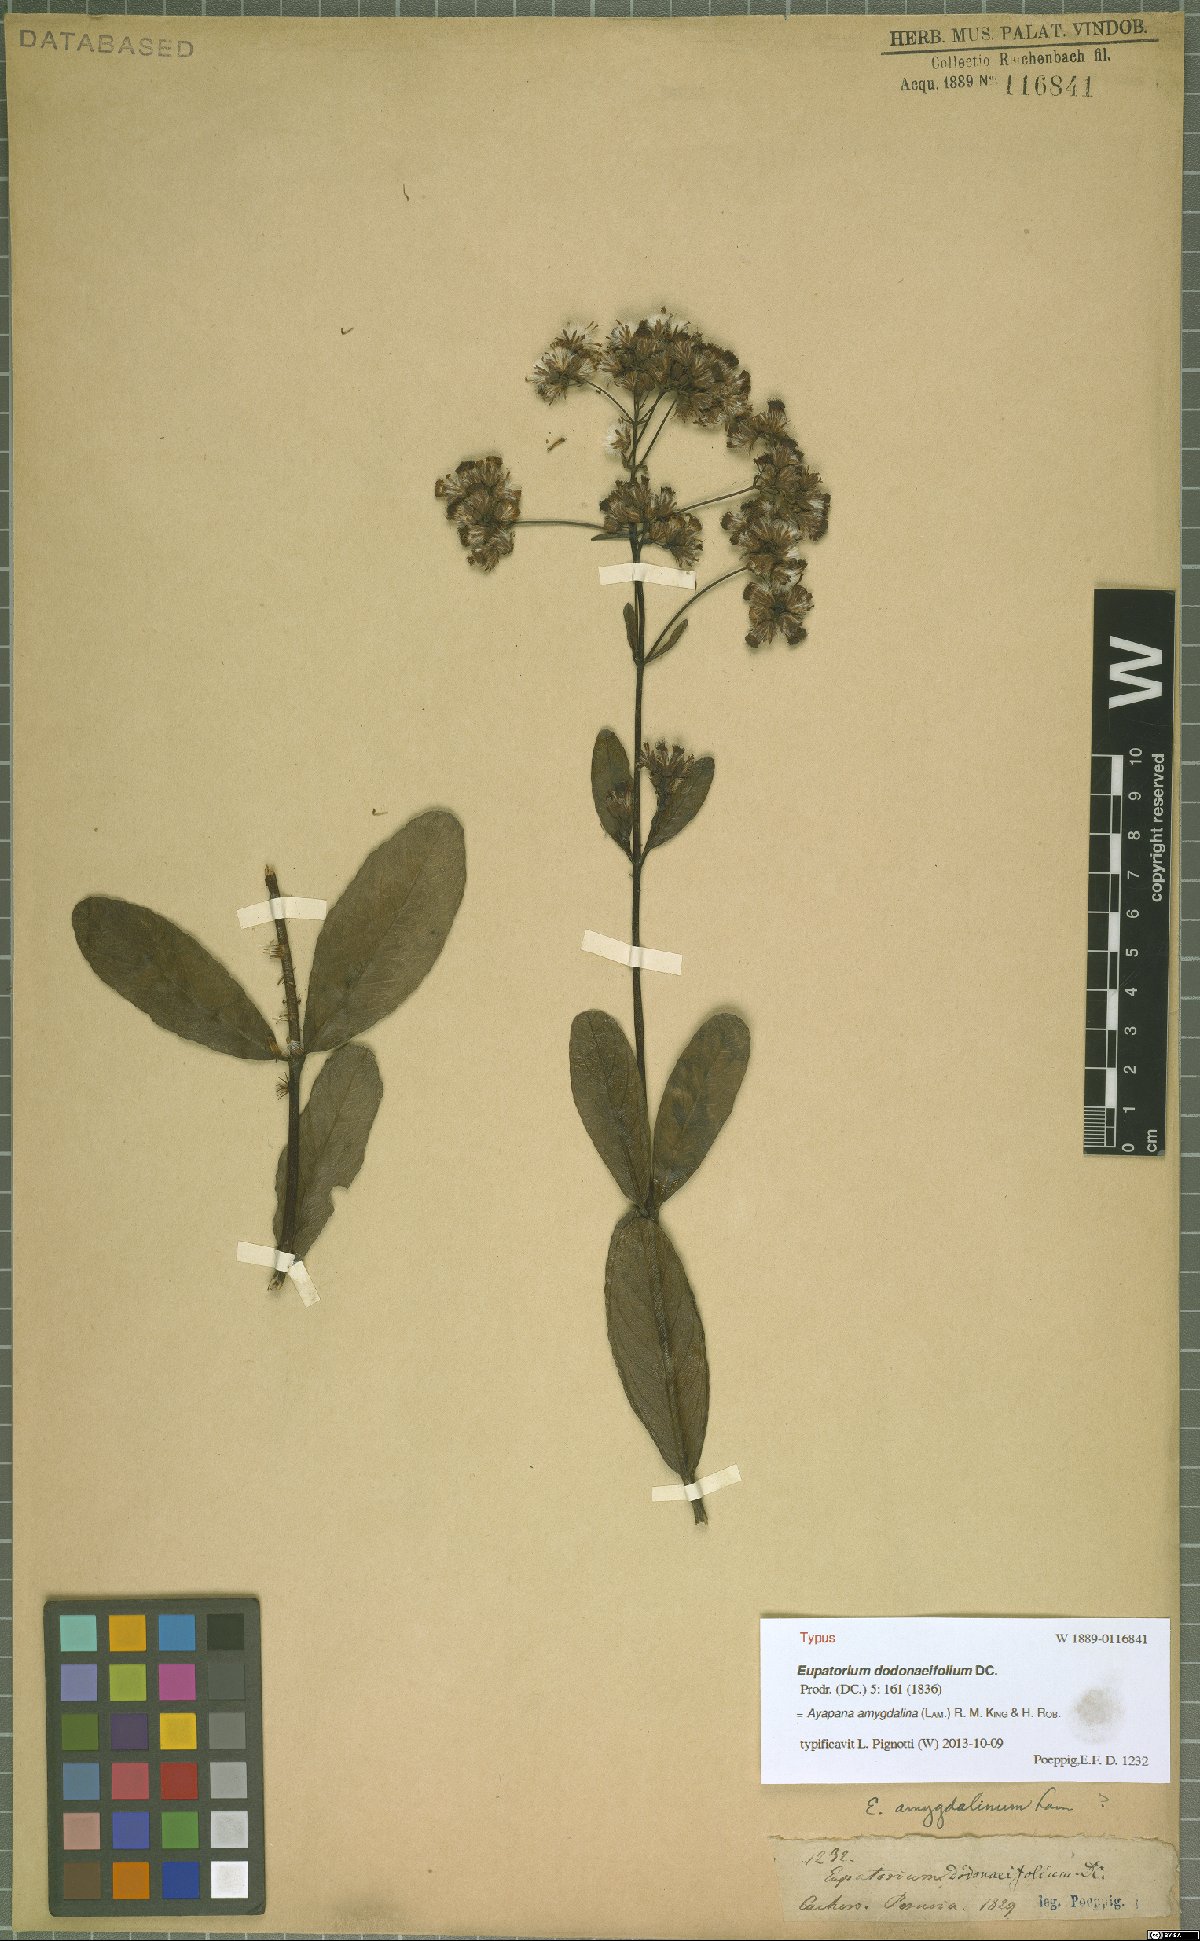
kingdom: Plantae
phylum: Tracheophyta
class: Magnoliopsida
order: Asterales
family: Asteraceae
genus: Ayapana
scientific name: Ayapana amygdalina
